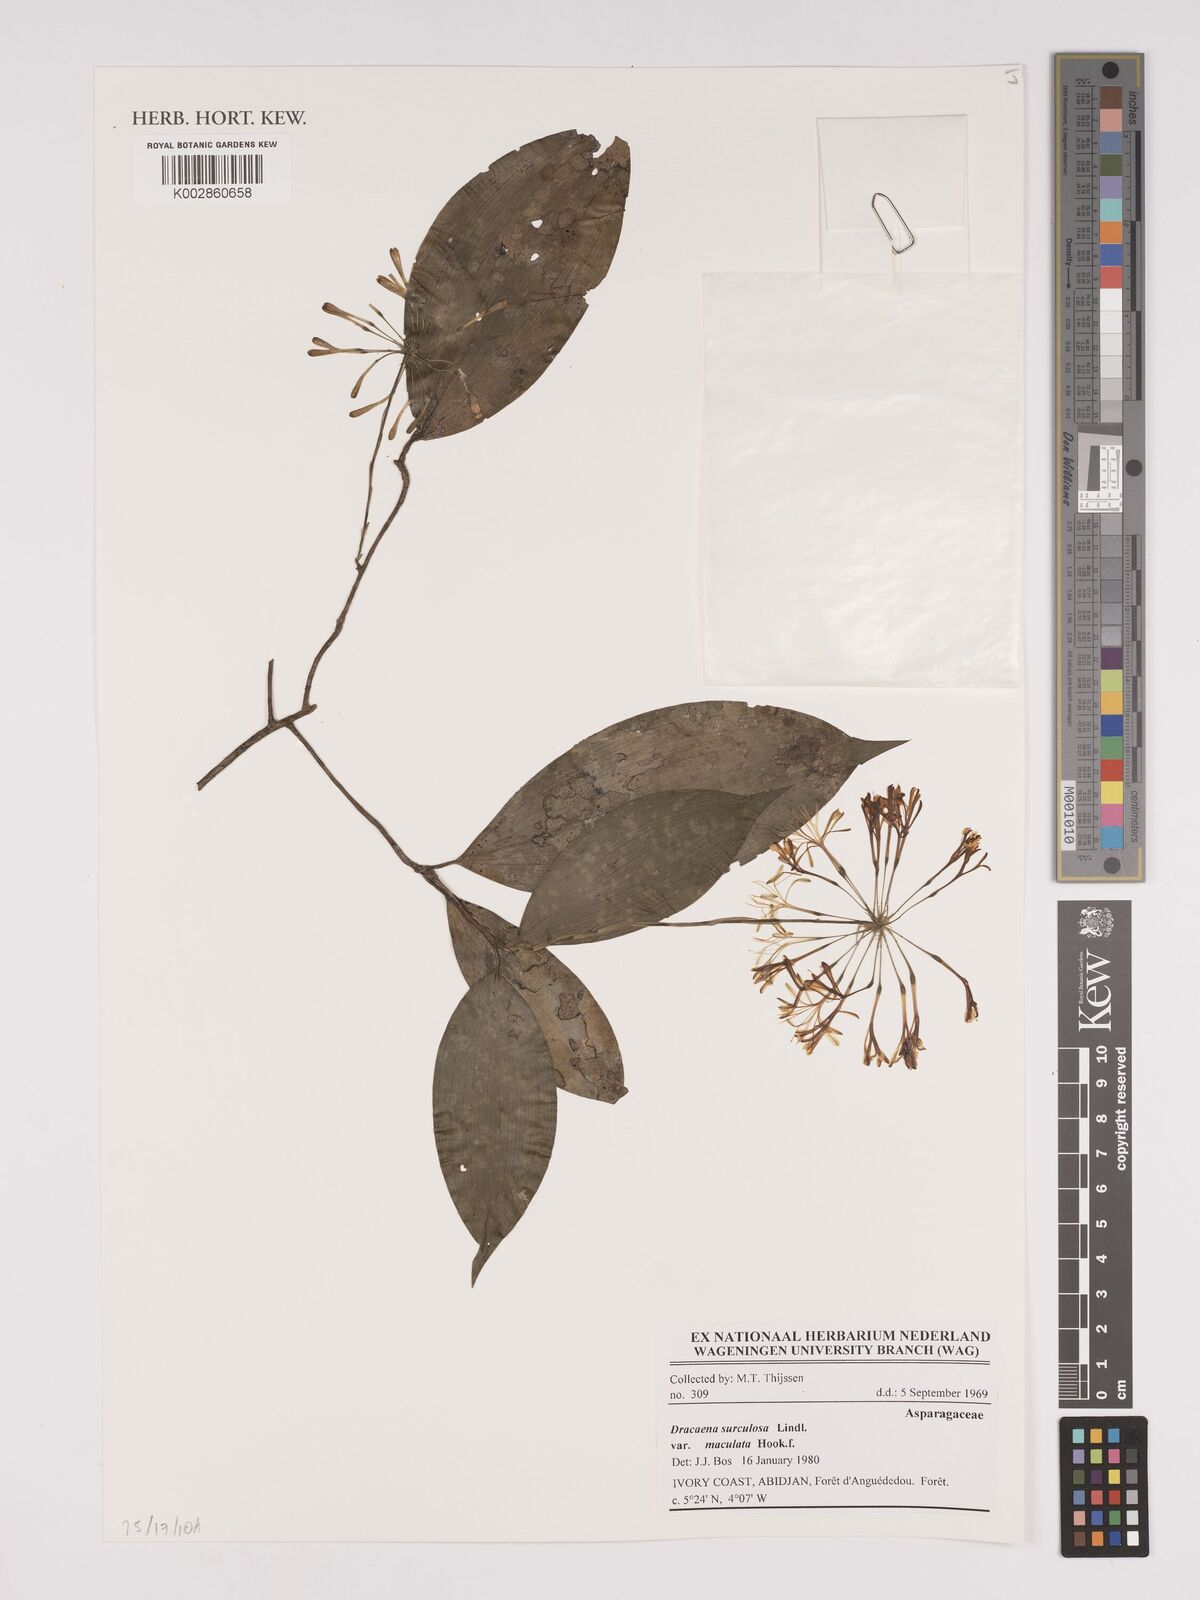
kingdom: Plantae
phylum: Tracheophyta
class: Liliopsida
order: Asparagales
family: Asparagaceae
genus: Dracaena
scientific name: Dracaena surculosa
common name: Spotted dracaena
